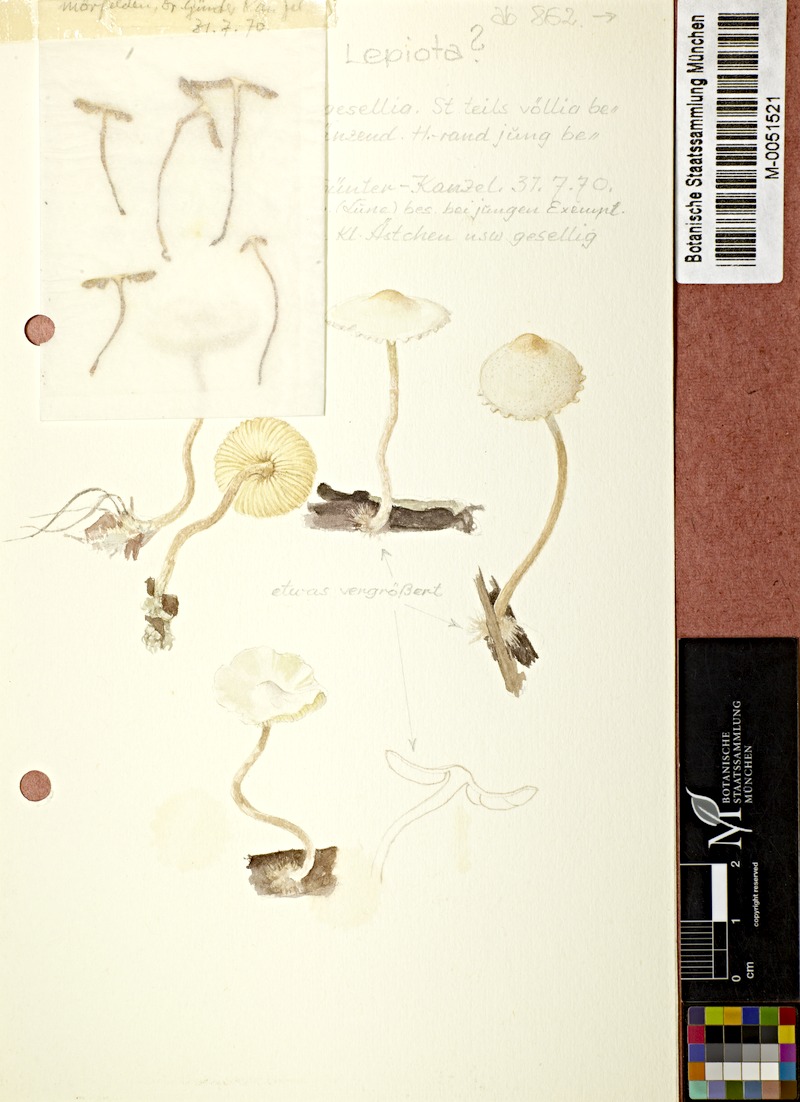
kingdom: Fungi
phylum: Basidiomycota
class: Agaricomycetes
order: Agaricales
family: Agaricaceae
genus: Lepiota
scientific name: Lepiota
